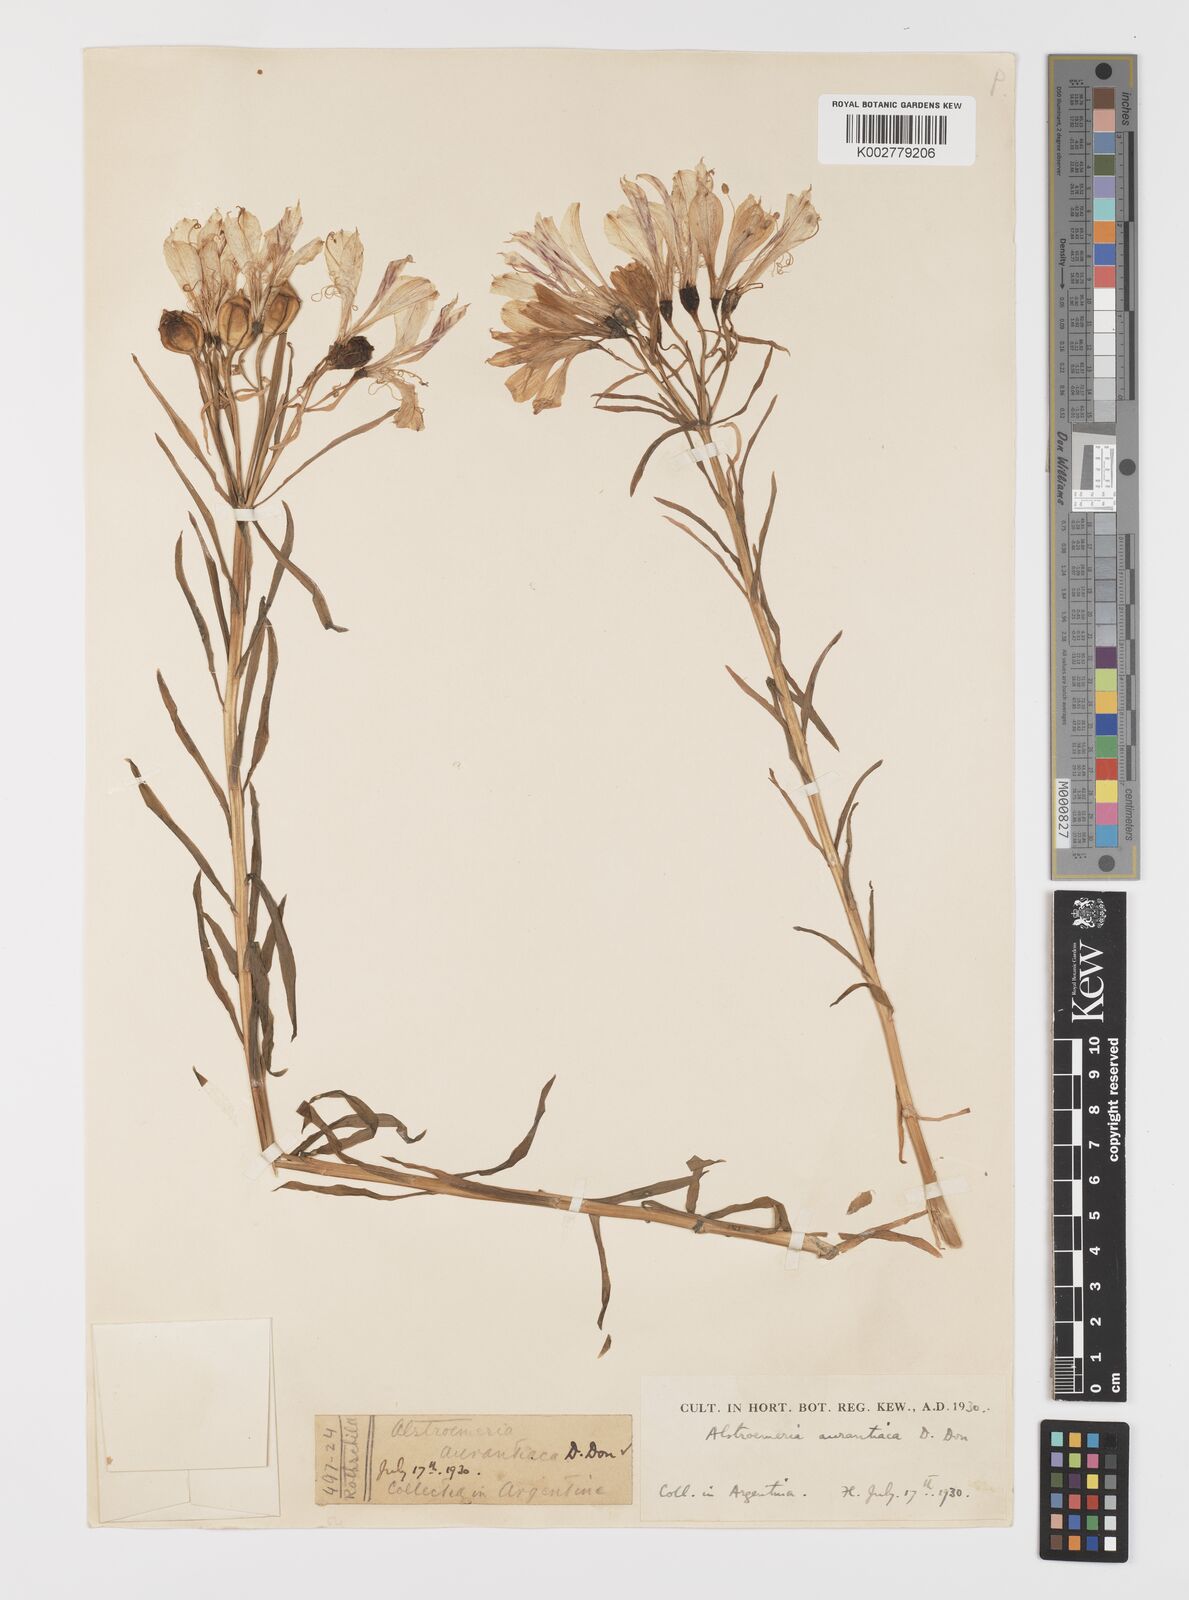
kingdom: Plantae
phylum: Tracheophyta
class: Liliopsida
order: Liliales
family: Alstroemeriaceae
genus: Alstroemeria
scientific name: Alstroemeria angustifolia
